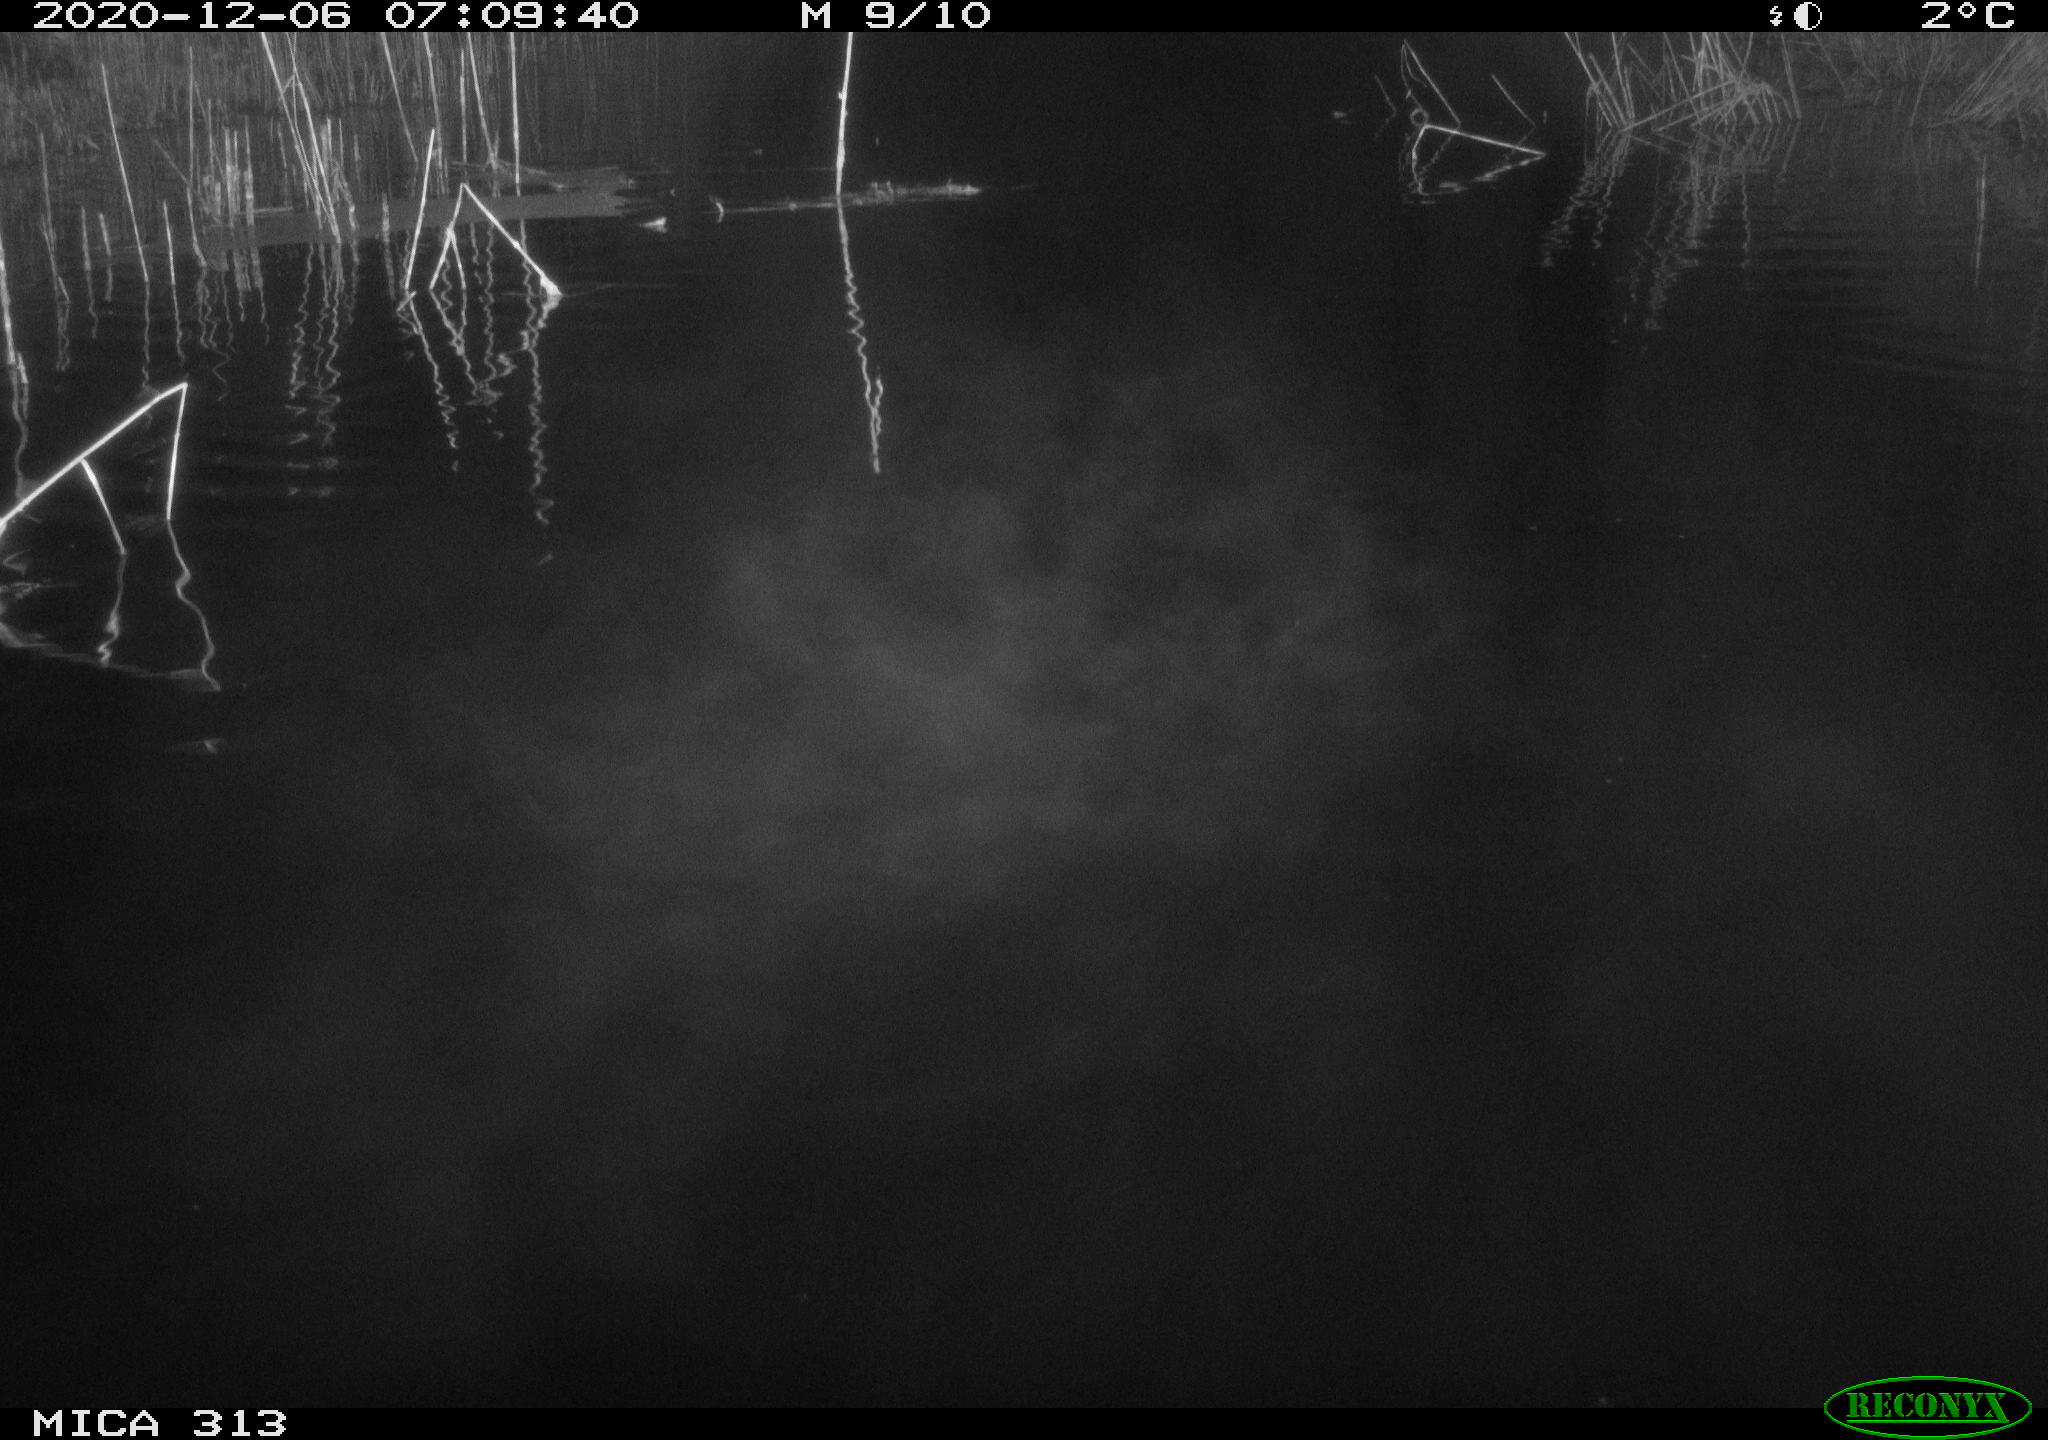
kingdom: Animalia
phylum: Chordata
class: Mammalia
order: Rodentia
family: Muridae
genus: Rattus
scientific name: Rattus norvegicus
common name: Brown rat
